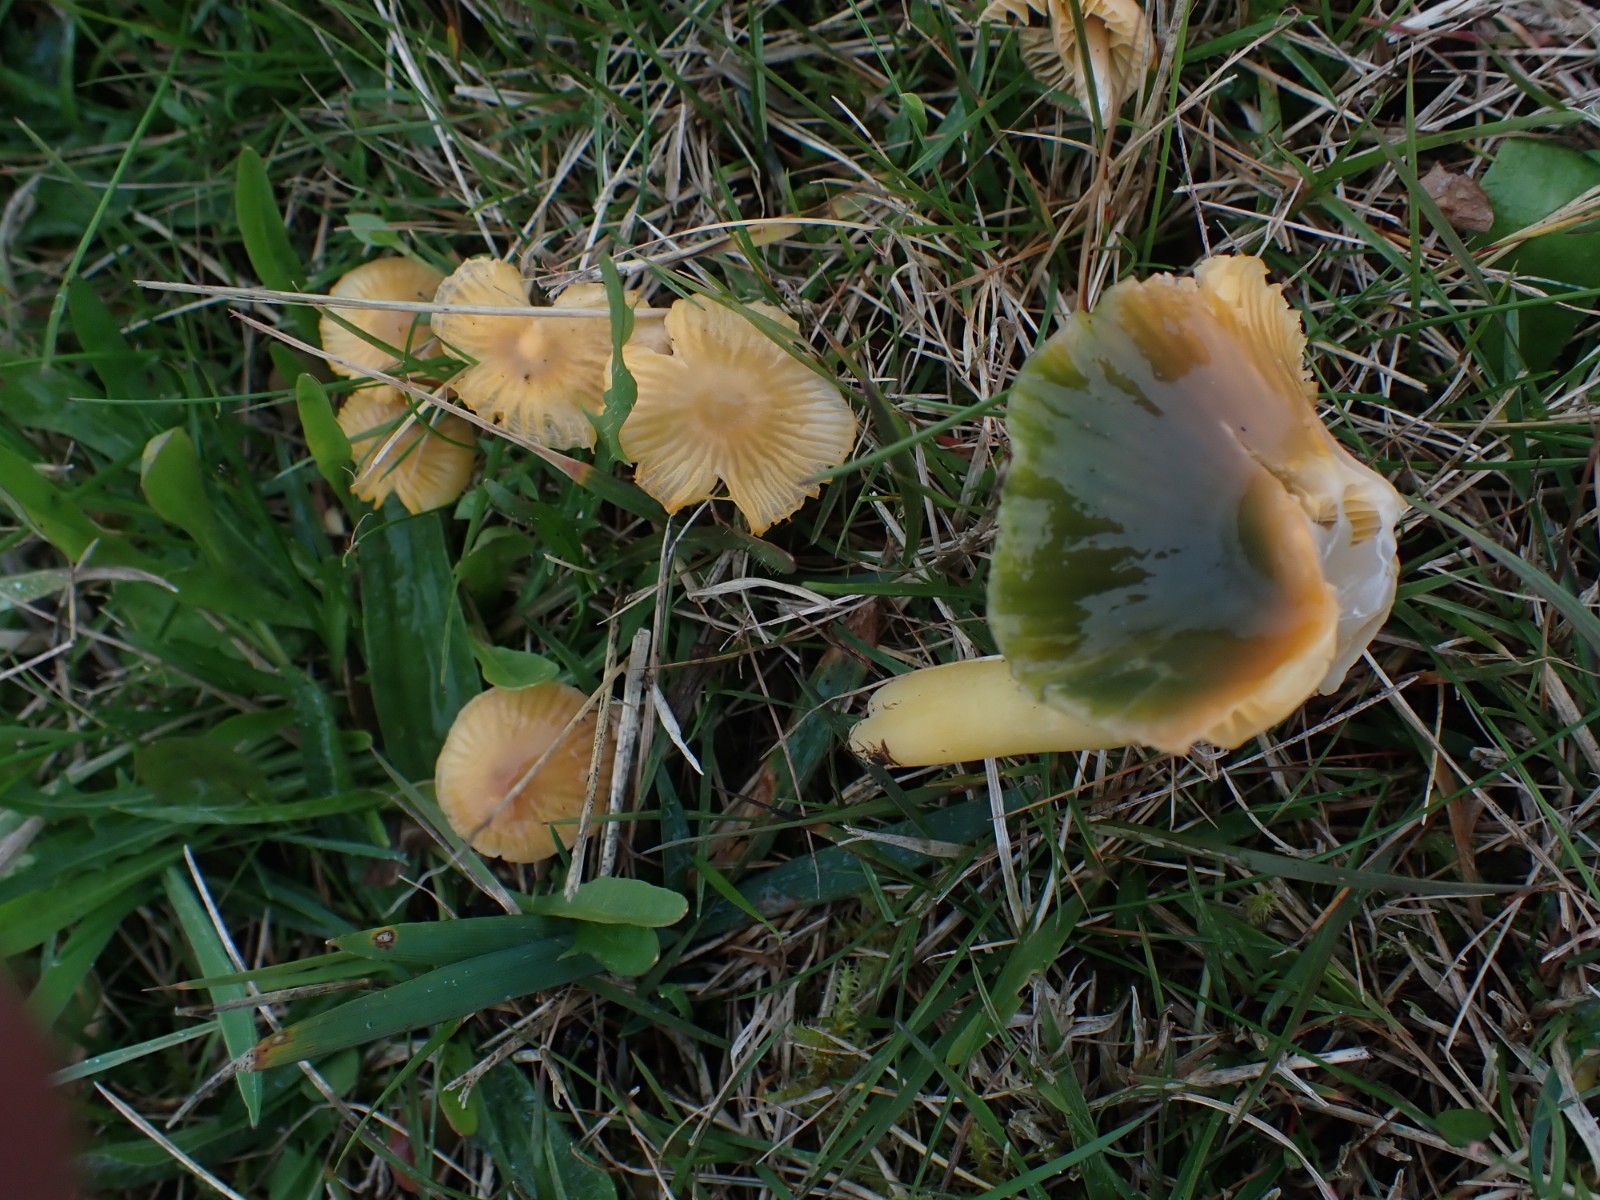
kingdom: Fungi
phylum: Basidiomycota
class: Agaricomycetes
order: Agaricales
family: Hygrophoraceae
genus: Gliophorus
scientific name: Gliophorus psittacinus
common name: papegøje-vokshat
